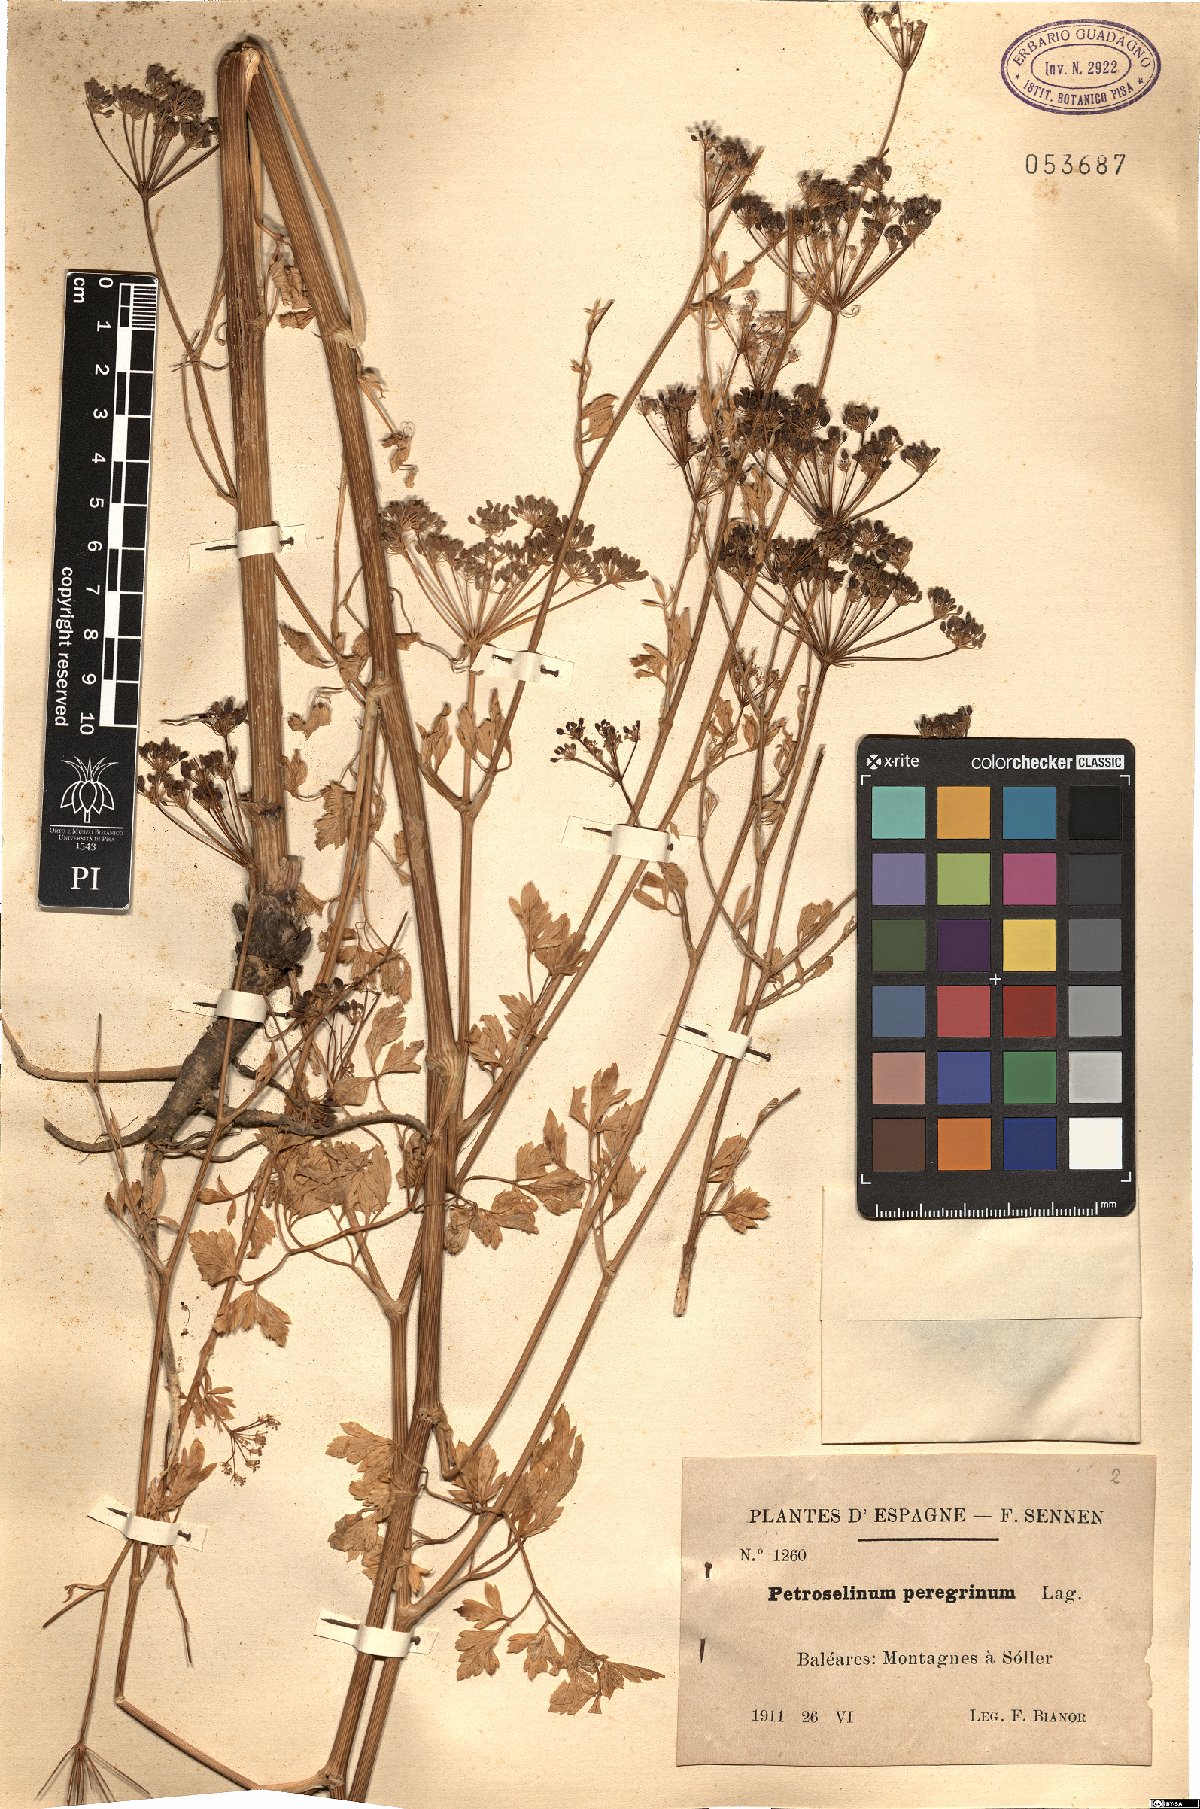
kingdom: Plantae
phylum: Tracheophyta
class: Magnoliopsida
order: Apiales
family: Apiaceae
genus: Petroselinum
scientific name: Petroselinum crispum
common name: Parsley
